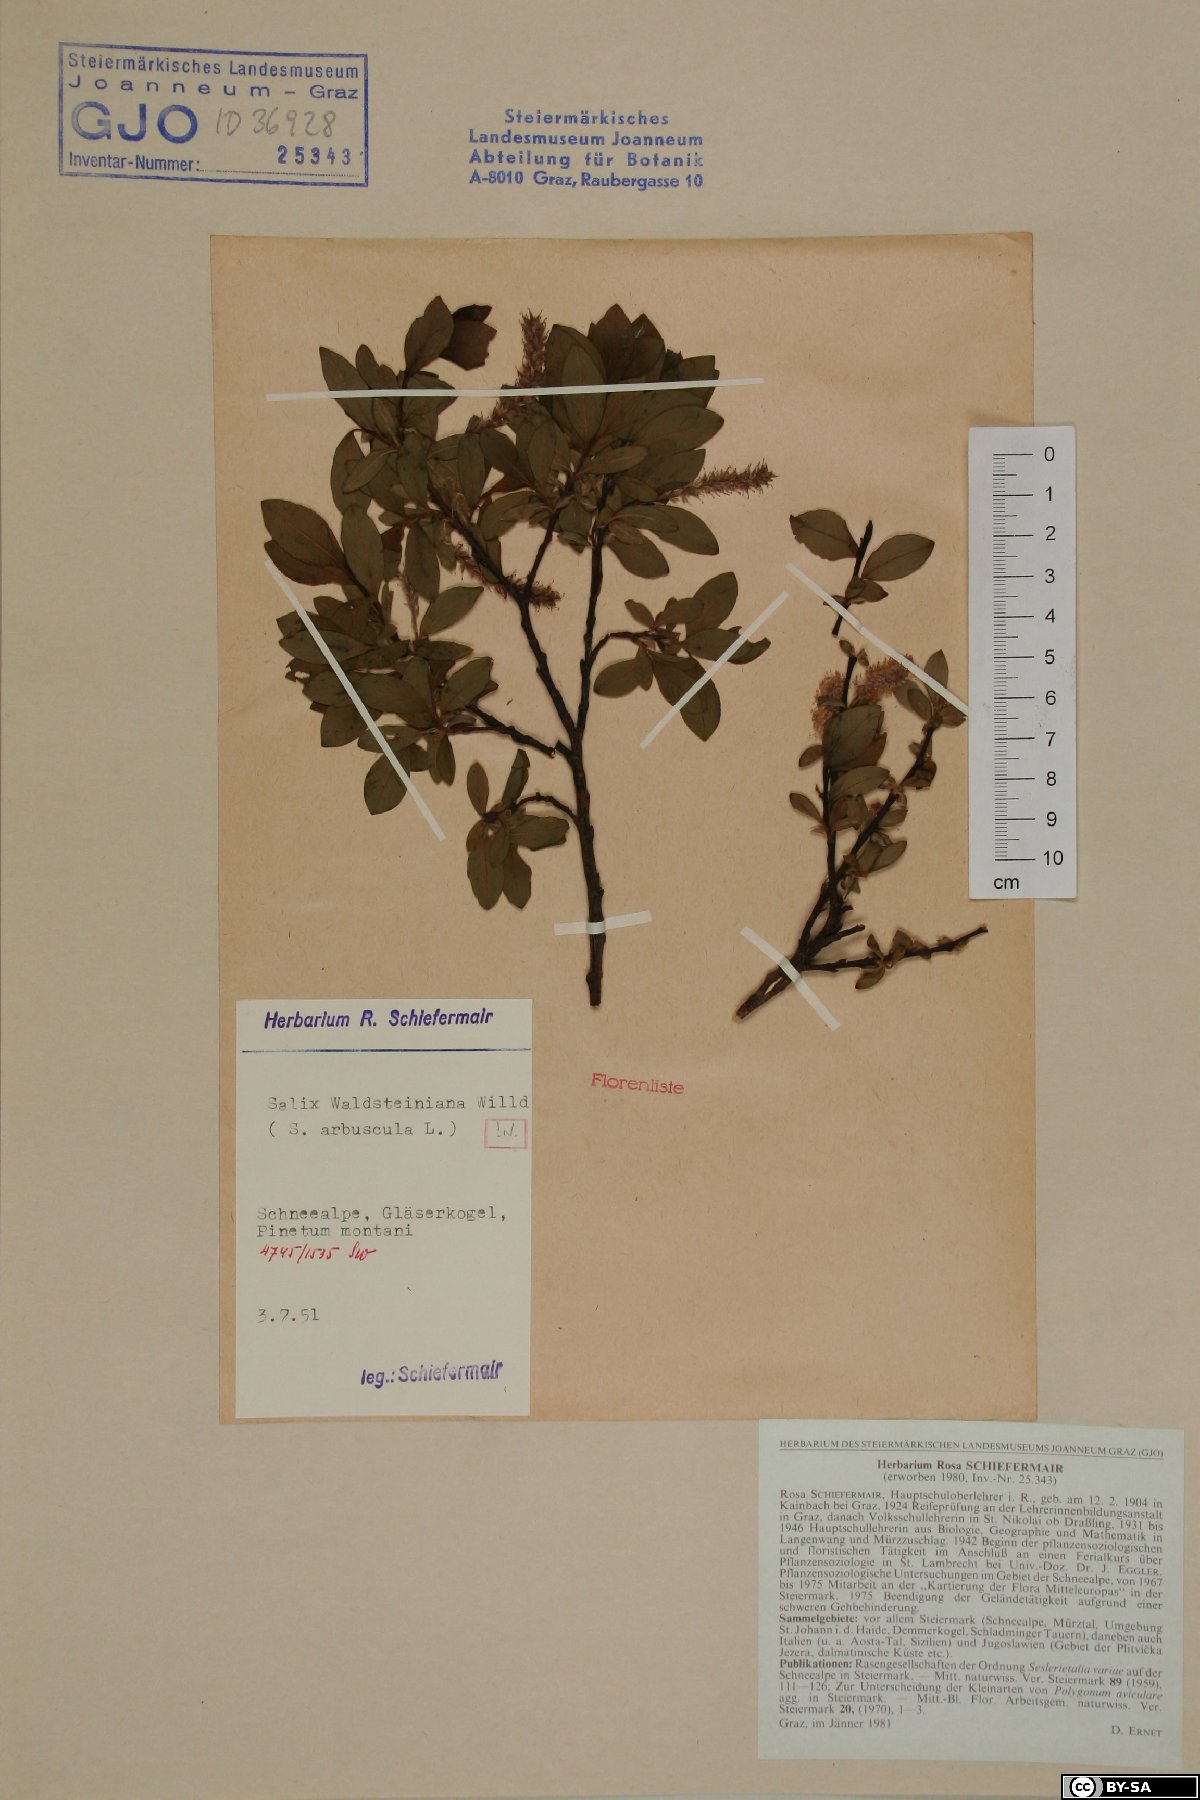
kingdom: Plantae
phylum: Tracheophyta
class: Magnoliopsida
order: Malpighiales
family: Salicaceae
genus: Salix
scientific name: Salix waldsteiniana
